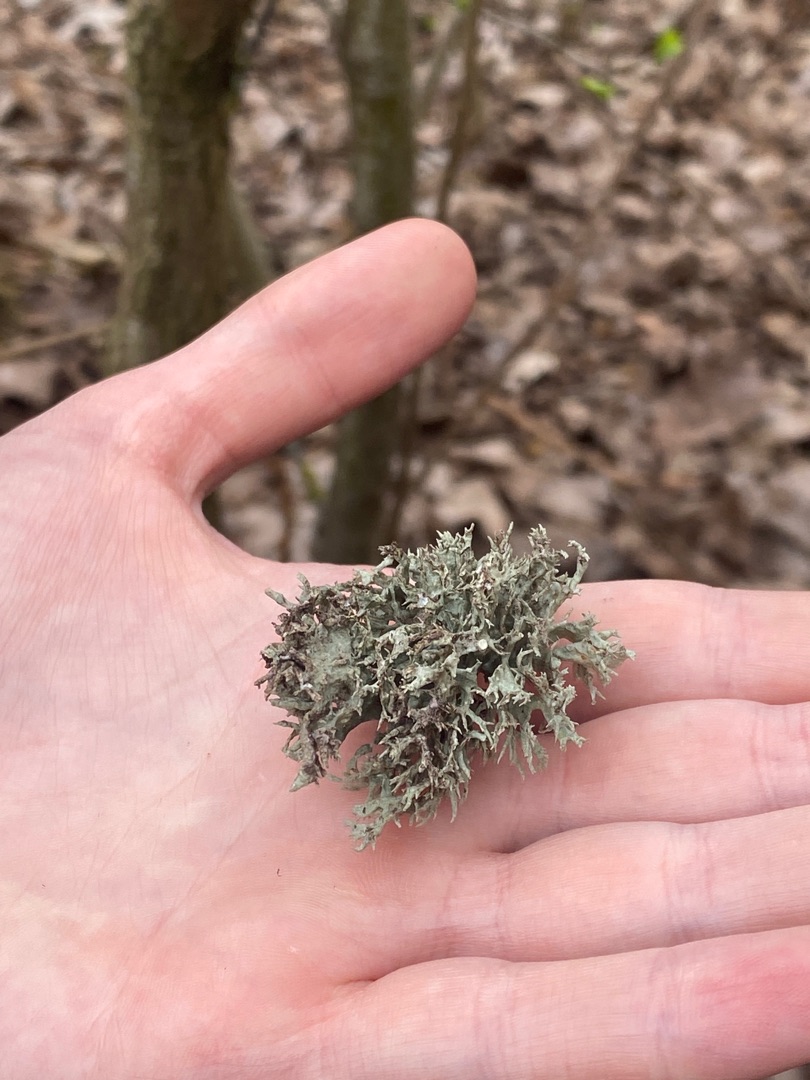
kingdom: Fungi
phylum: Ascomycota
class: Lecanoromycetes
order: Lecanorales
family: Ramalinaceae
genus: Ramalina
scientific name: Ramalina fastigiata
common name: Tue-grenlav
